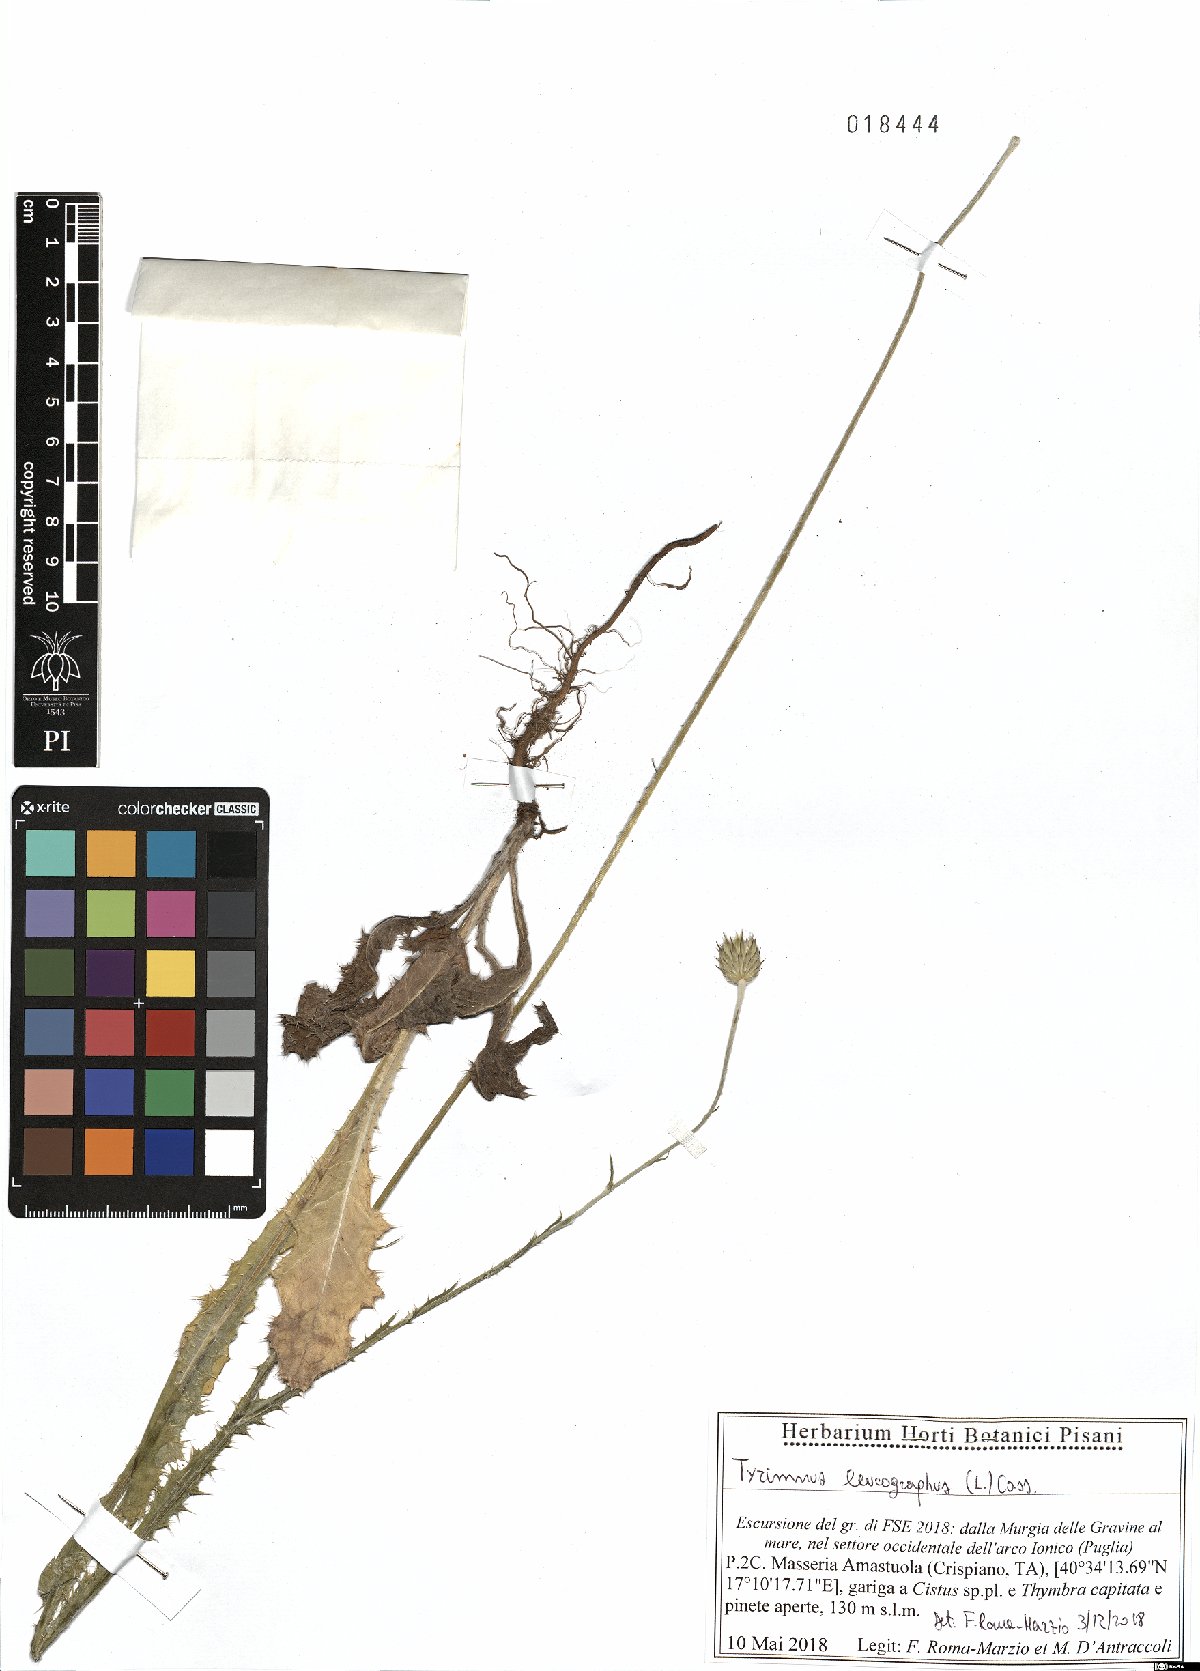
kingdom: Plantae
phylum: Tracheophyta
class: Magnoliopsida
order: Asterales
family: Asteraceae
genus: Tyrimnus
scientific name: Tyrimnus leucographus
